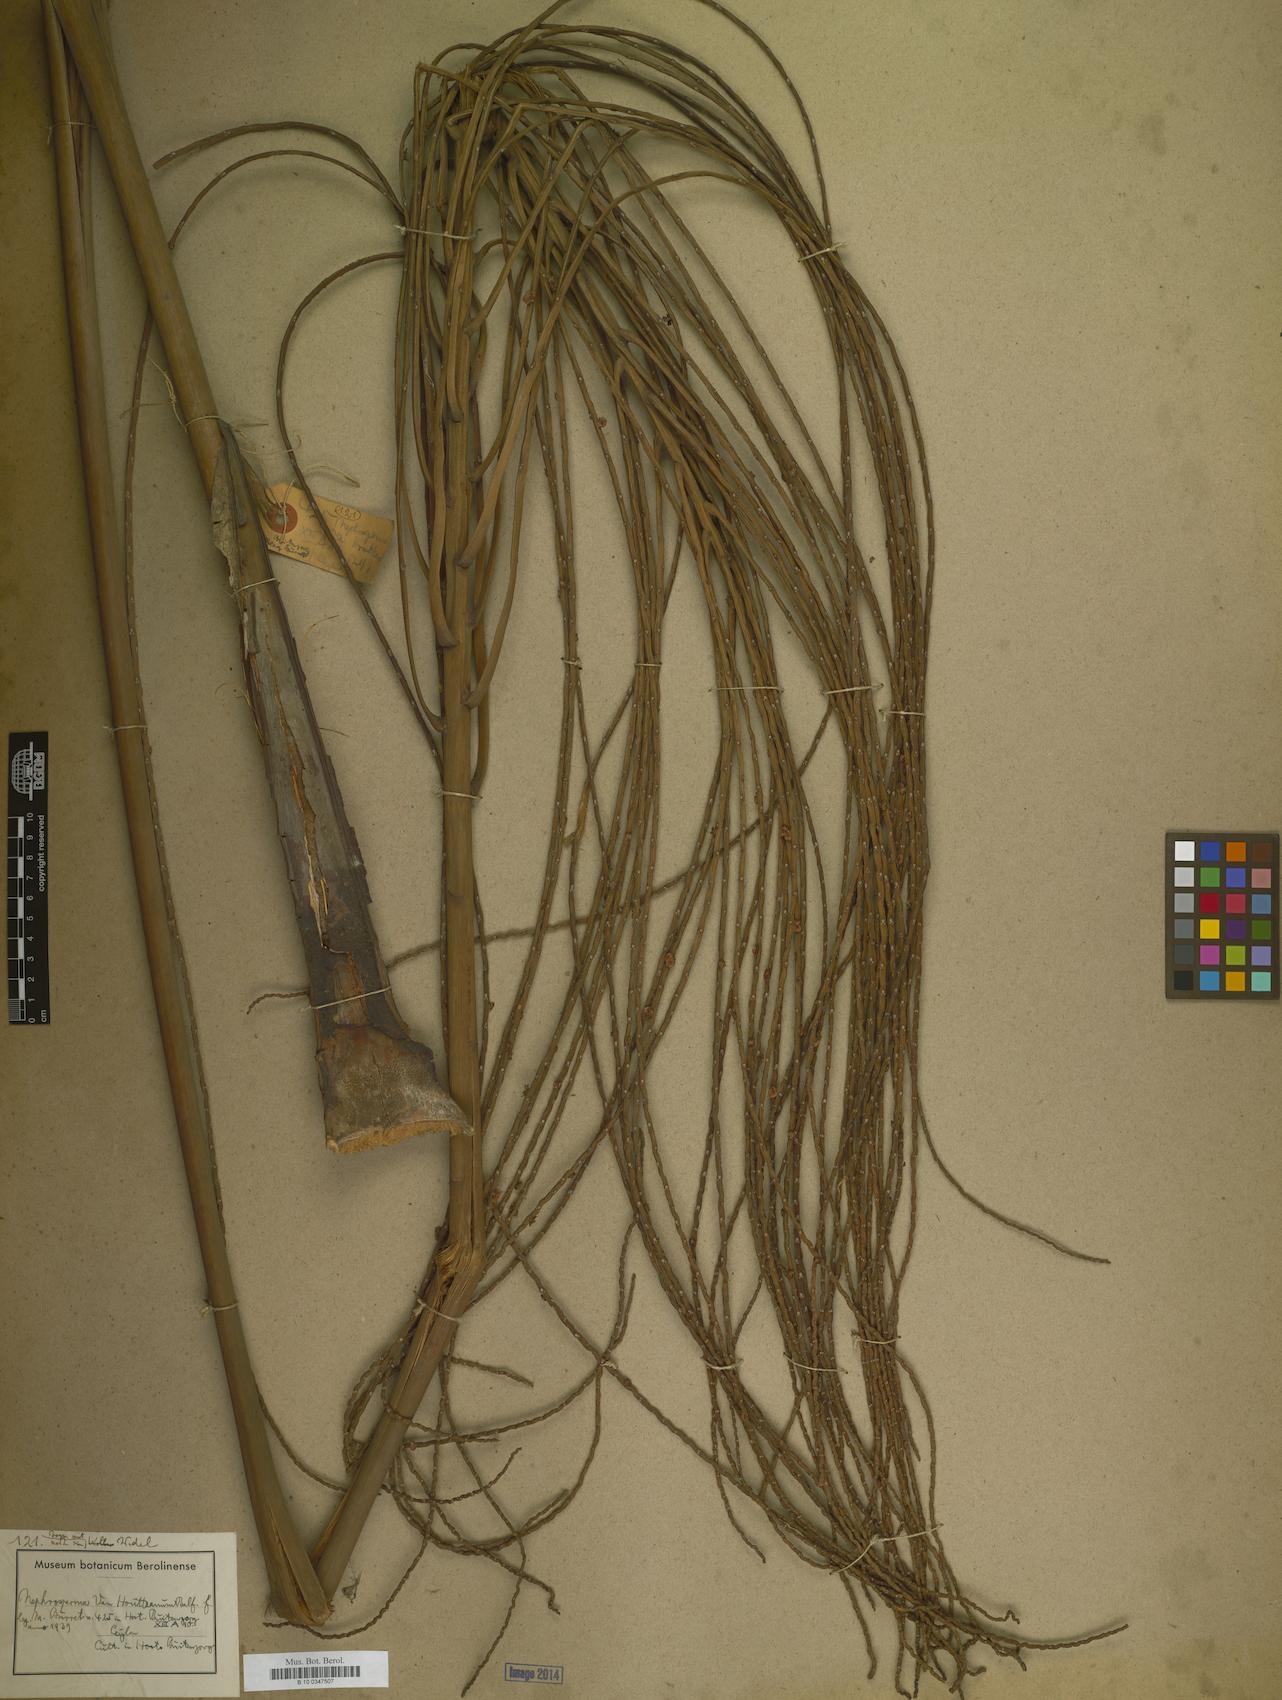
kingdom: Plantae
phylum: Tracheophyta
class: Liliopsida
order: Arecales
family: Arecaceae
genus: Nephrosperma
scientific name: Nephrosperma vanhoutteanum
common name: Seychelles palm
